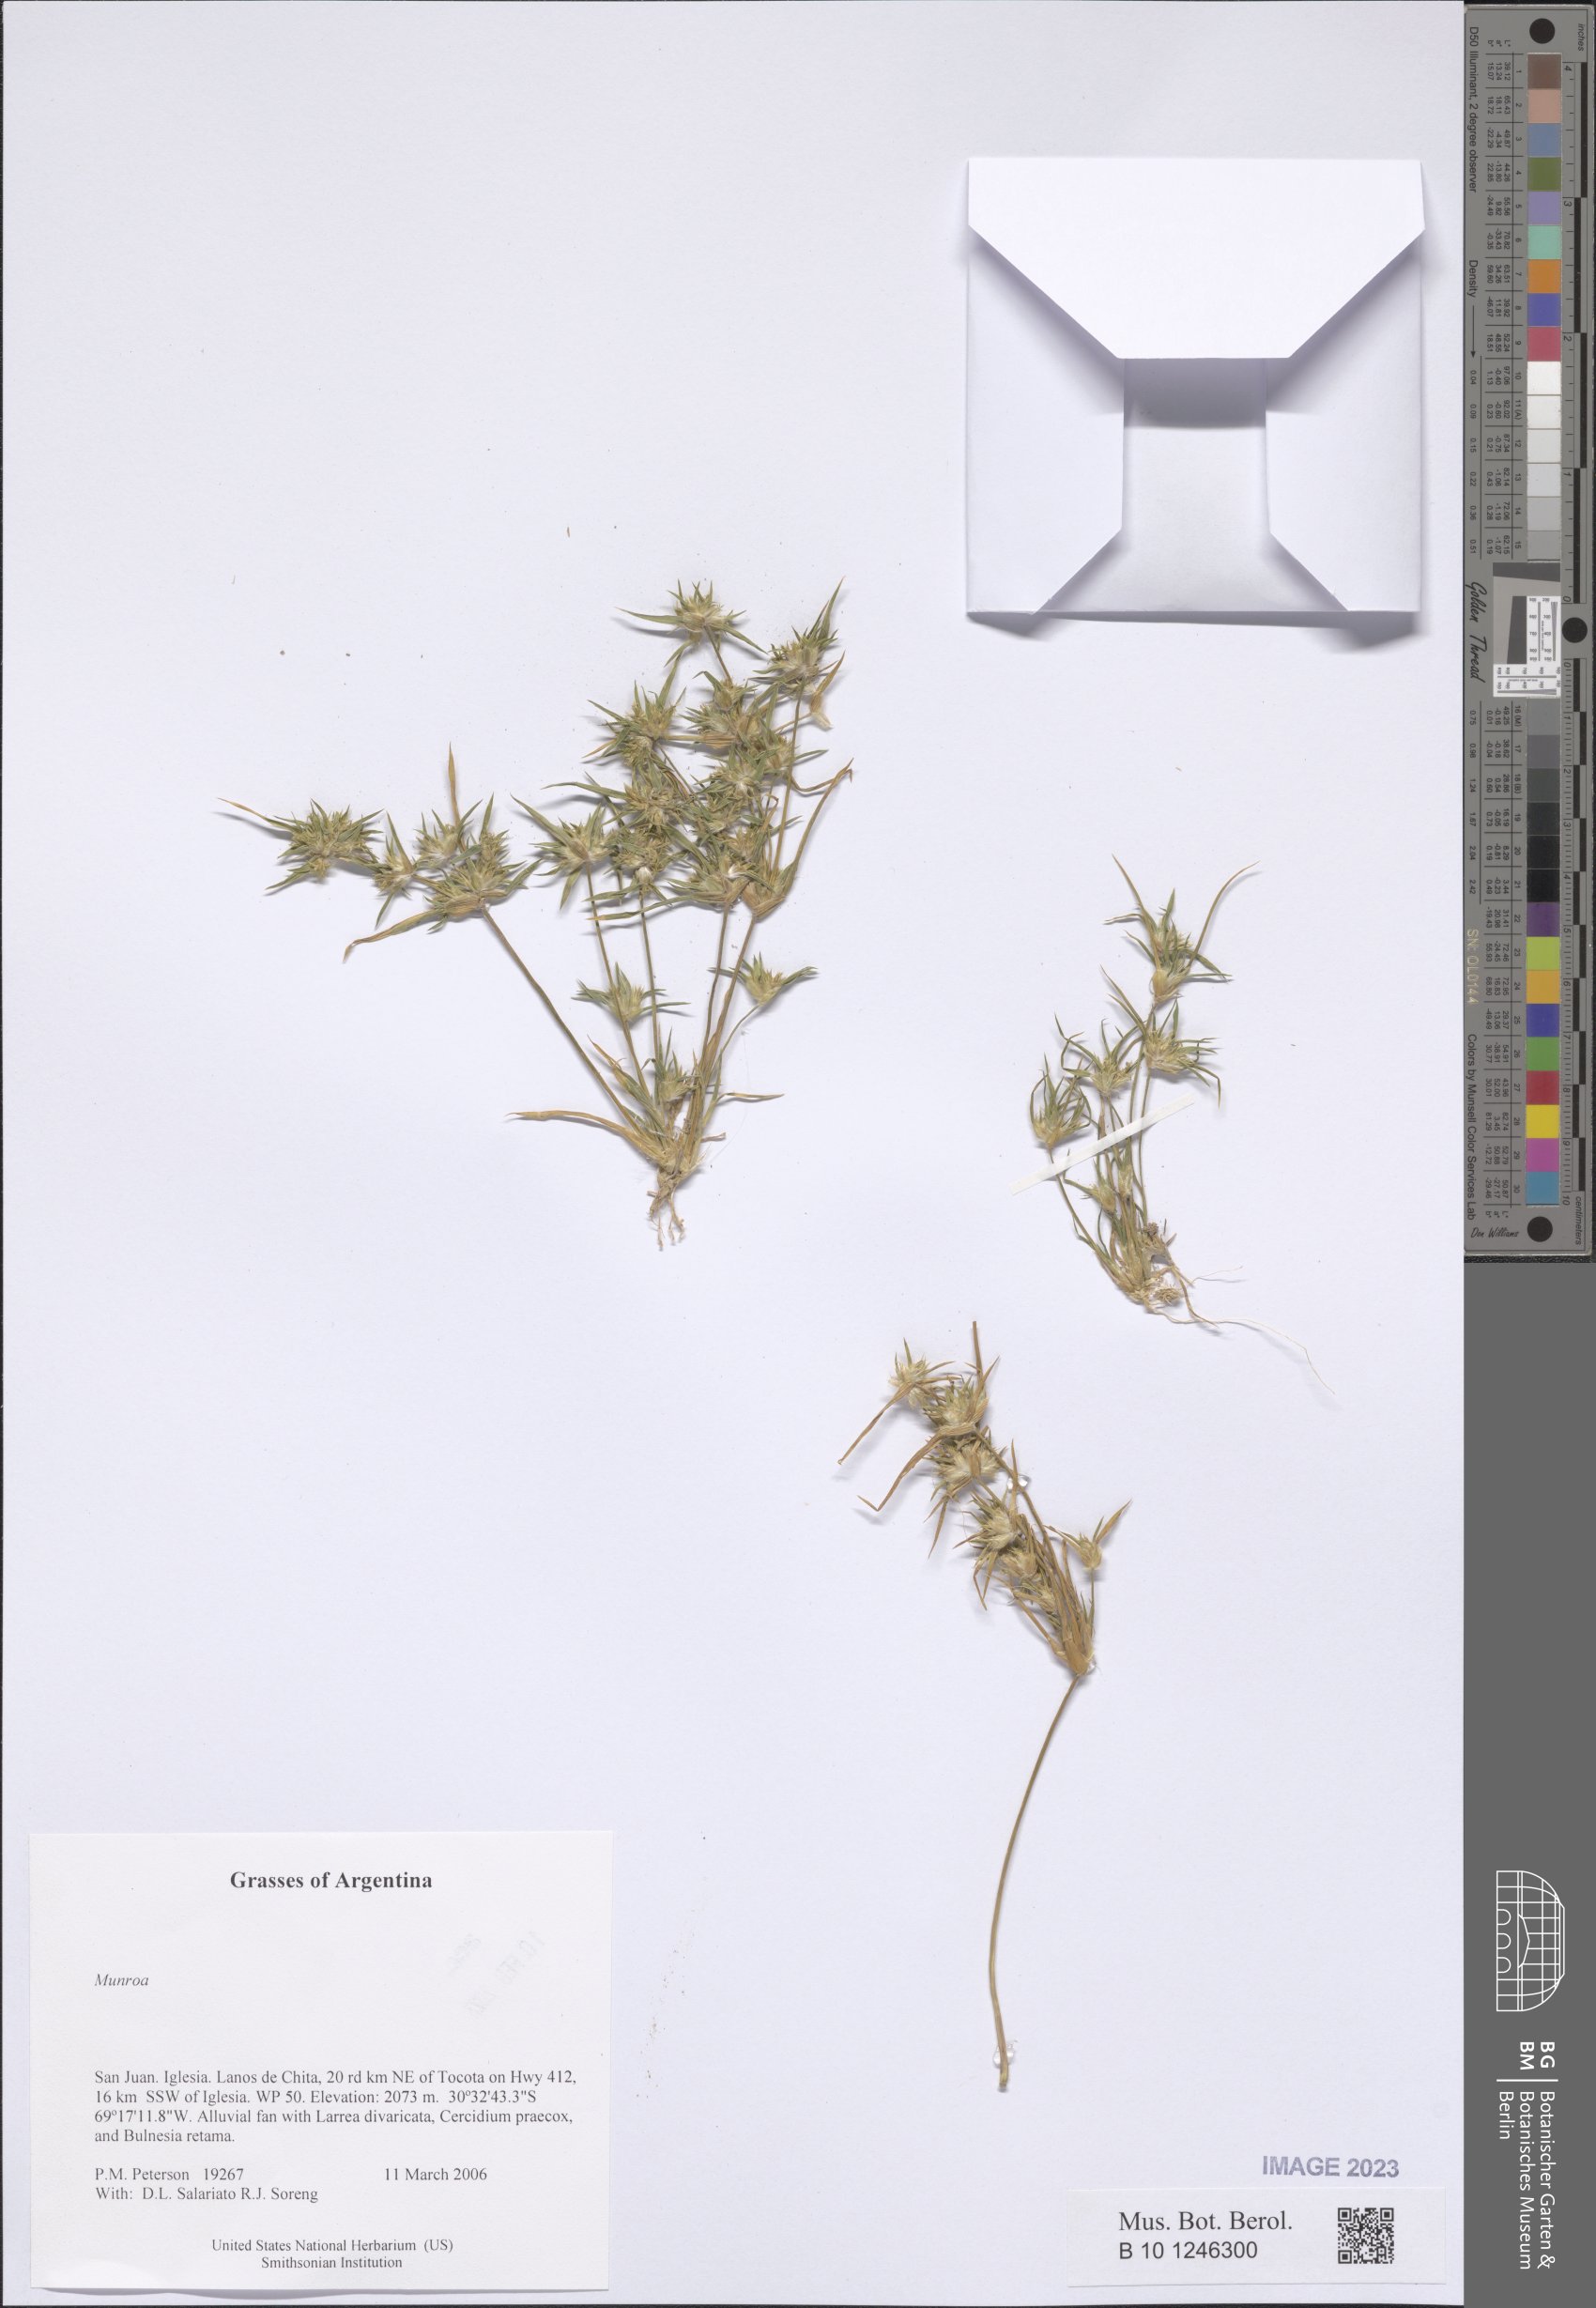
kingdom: Plantae
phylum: Tracheophyta
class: Liliopsida
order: Poales
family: Poaceae
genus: Munroa
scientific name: Munroa
